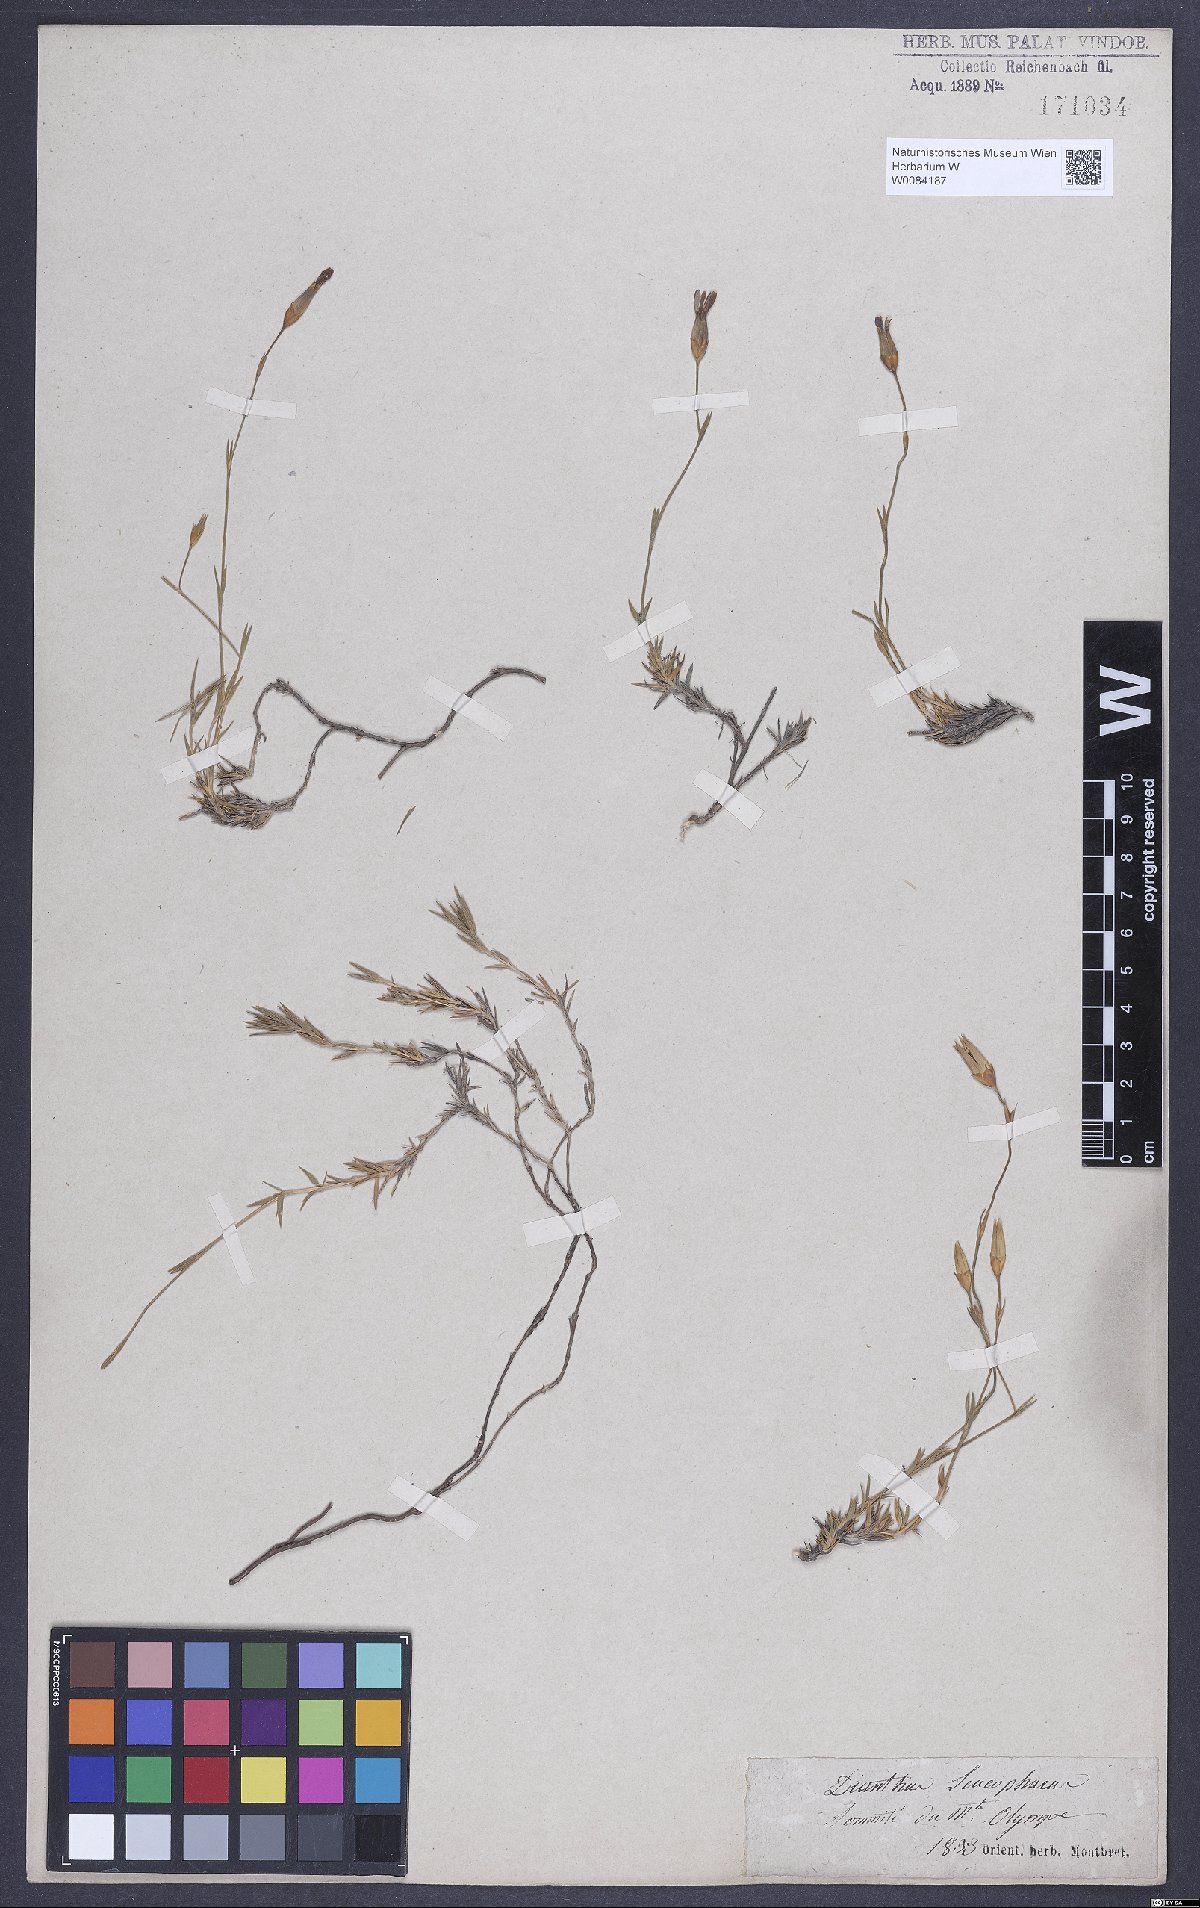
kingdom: Plantae
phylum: Tracheophyta
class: Magnoliopsida
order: Caryophyllales
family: Caryophyllaceae
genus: Dianthus
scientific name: Dianthus leucophaeus
